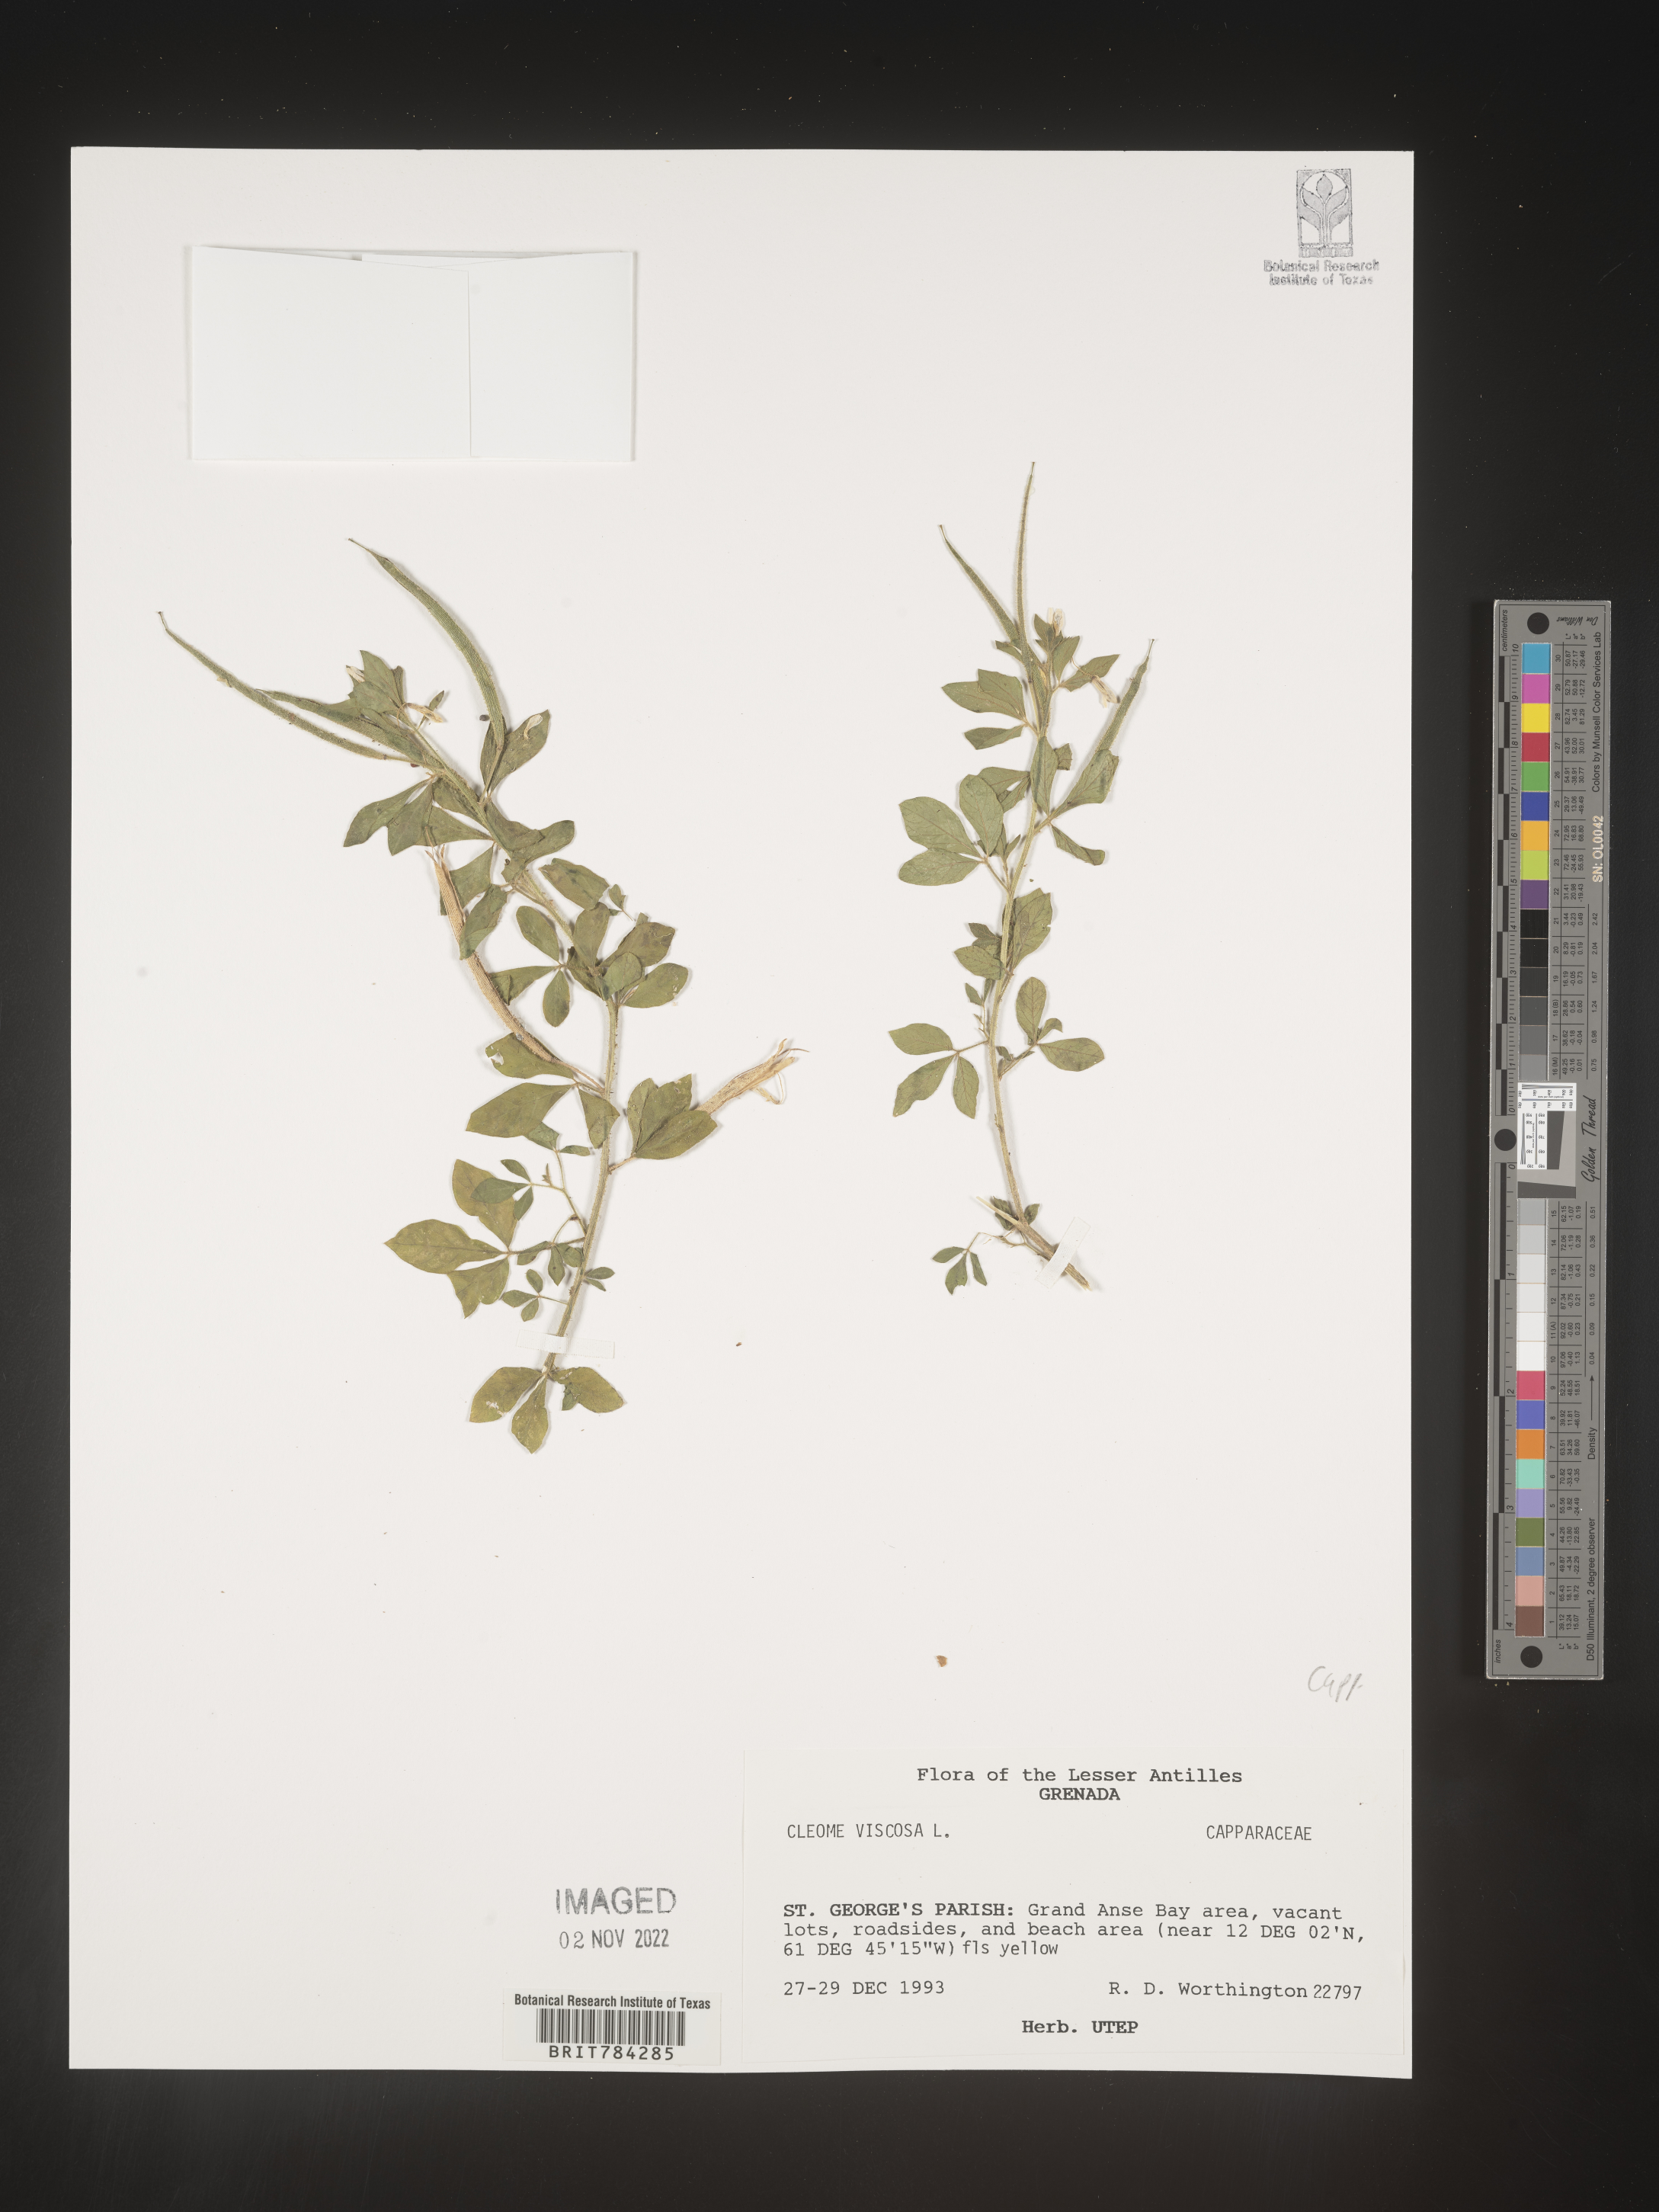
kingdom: Plantae
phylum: Tracheophyta
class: Magnoliopsida
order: Brassicales
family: Cleomaceae
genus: Cleome
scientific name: Cleome
